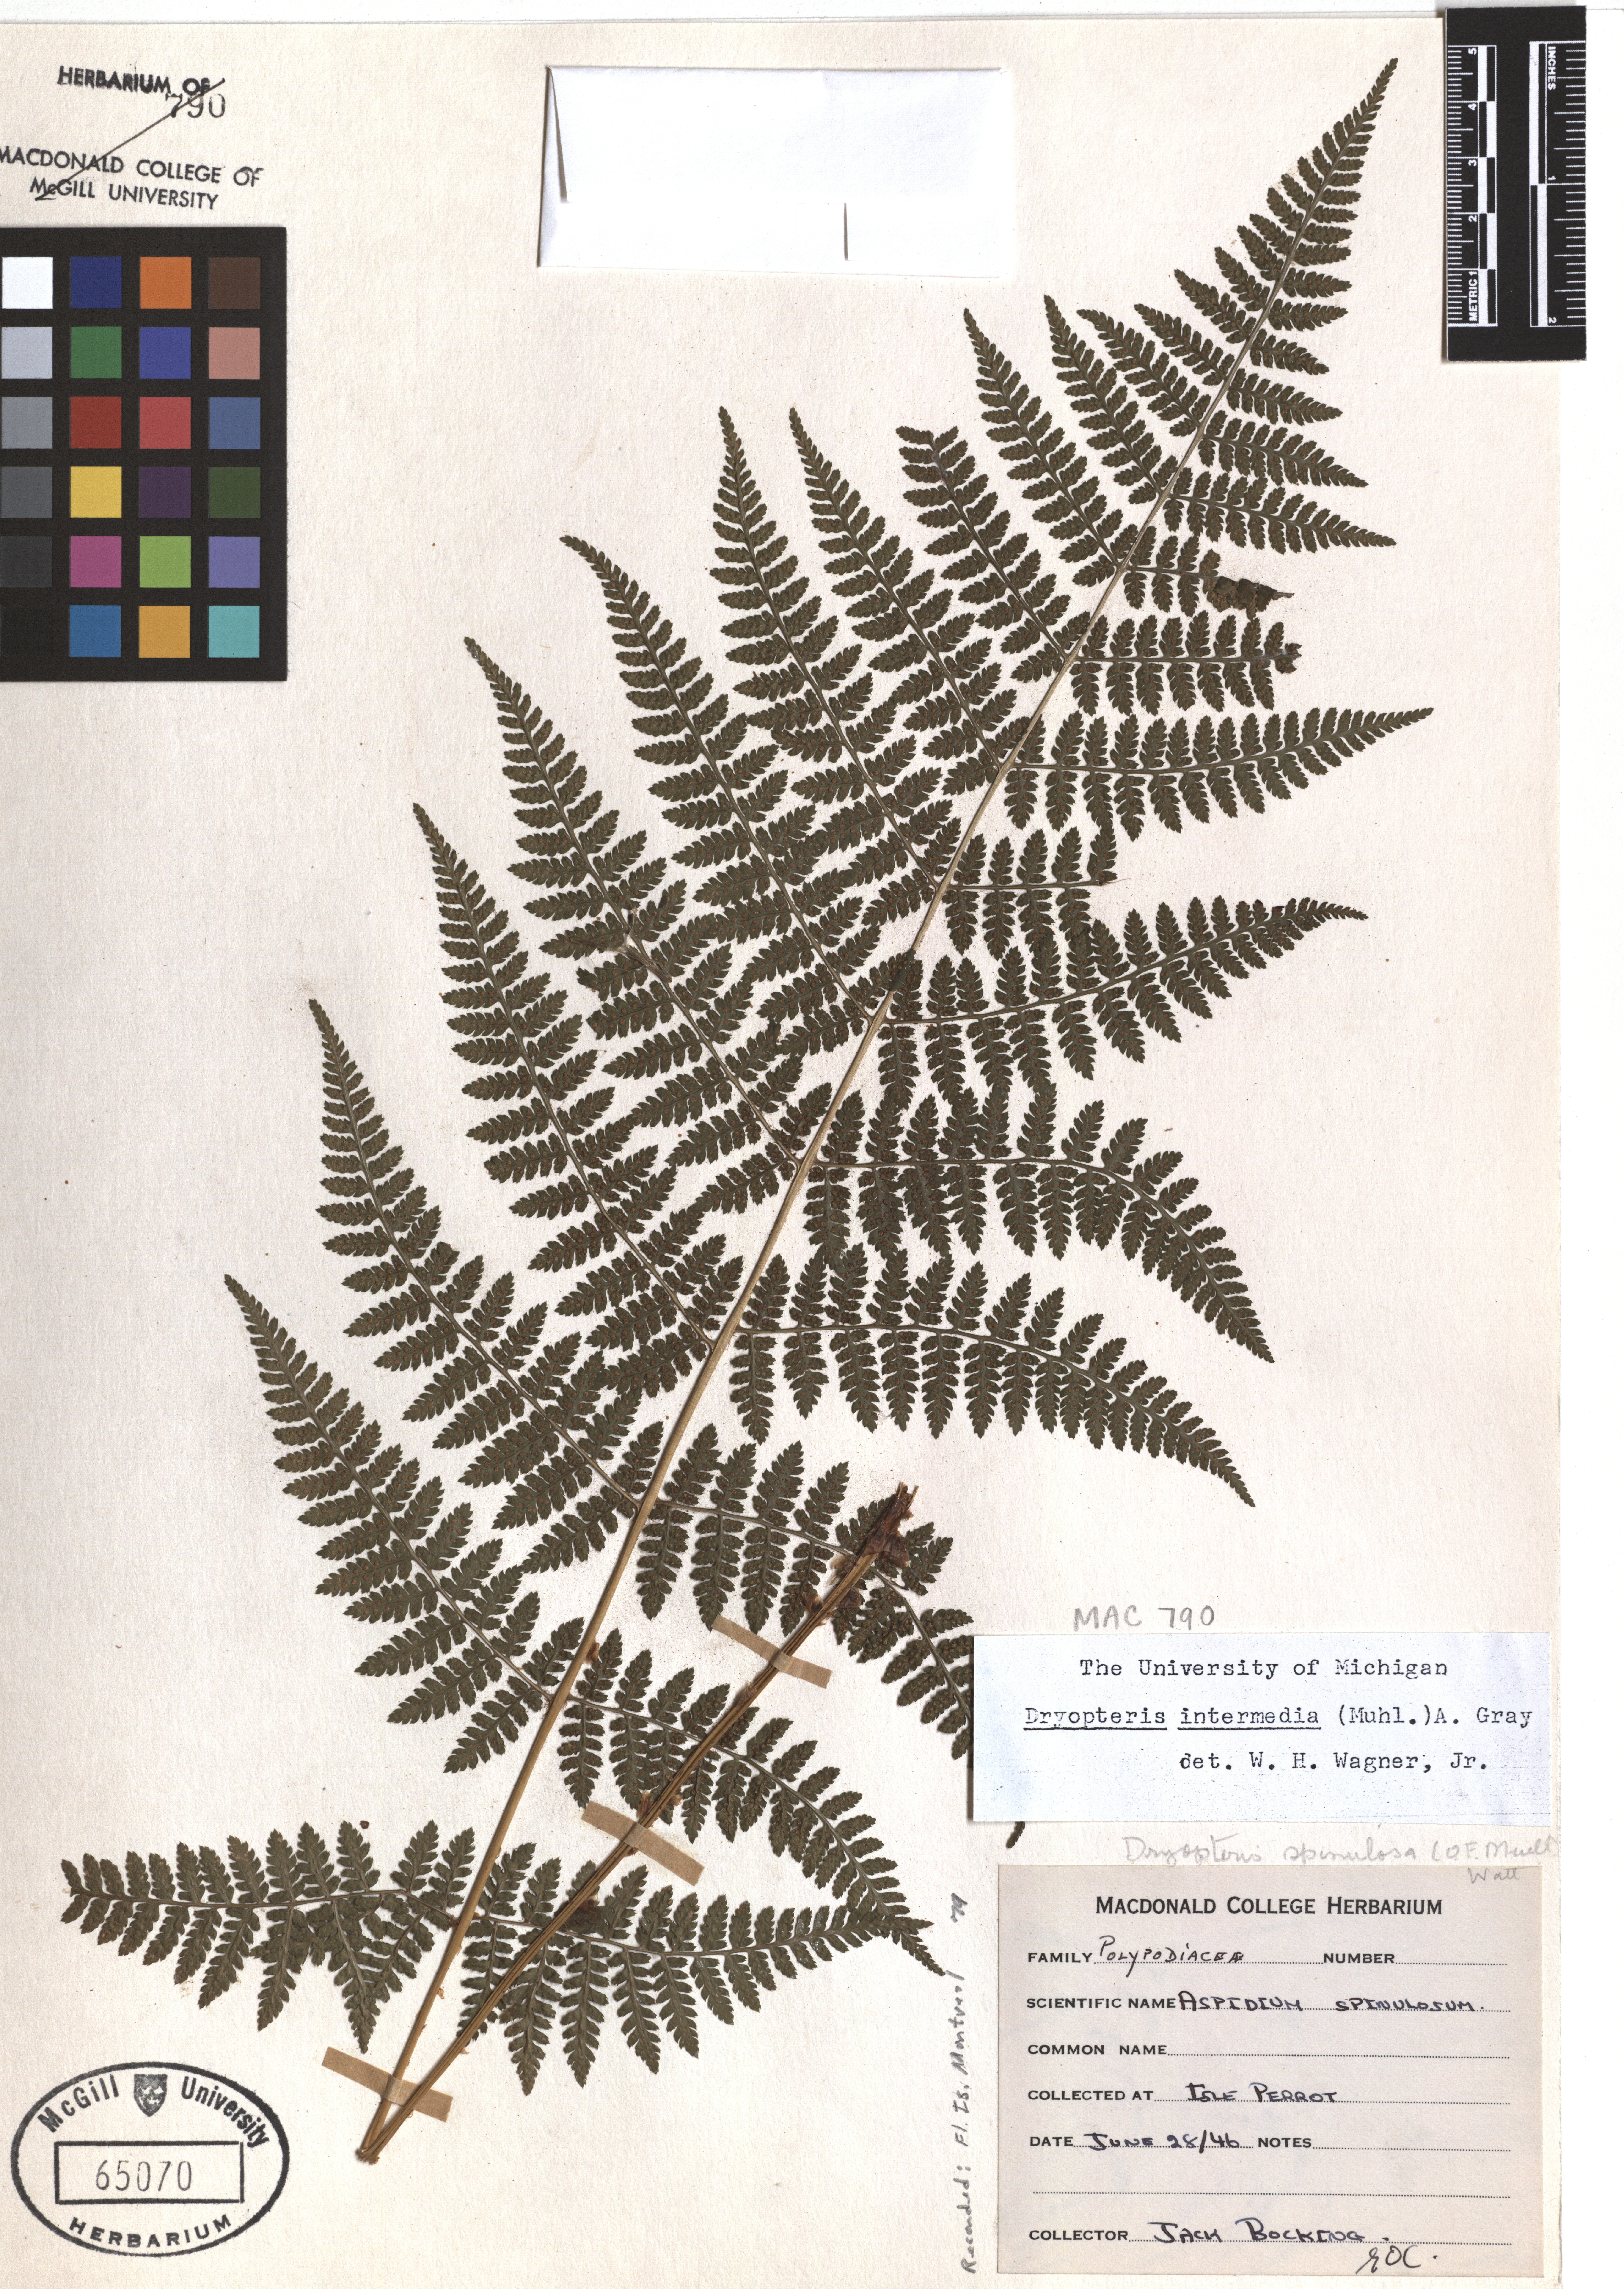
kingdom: Plantae
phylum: Tracheophyta
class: Polypodiopsida
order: Polypodiales
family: Dryopteridaceae
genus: Dryopteris
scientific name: Dryopteris intermedia
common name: Evergreen wood fern
